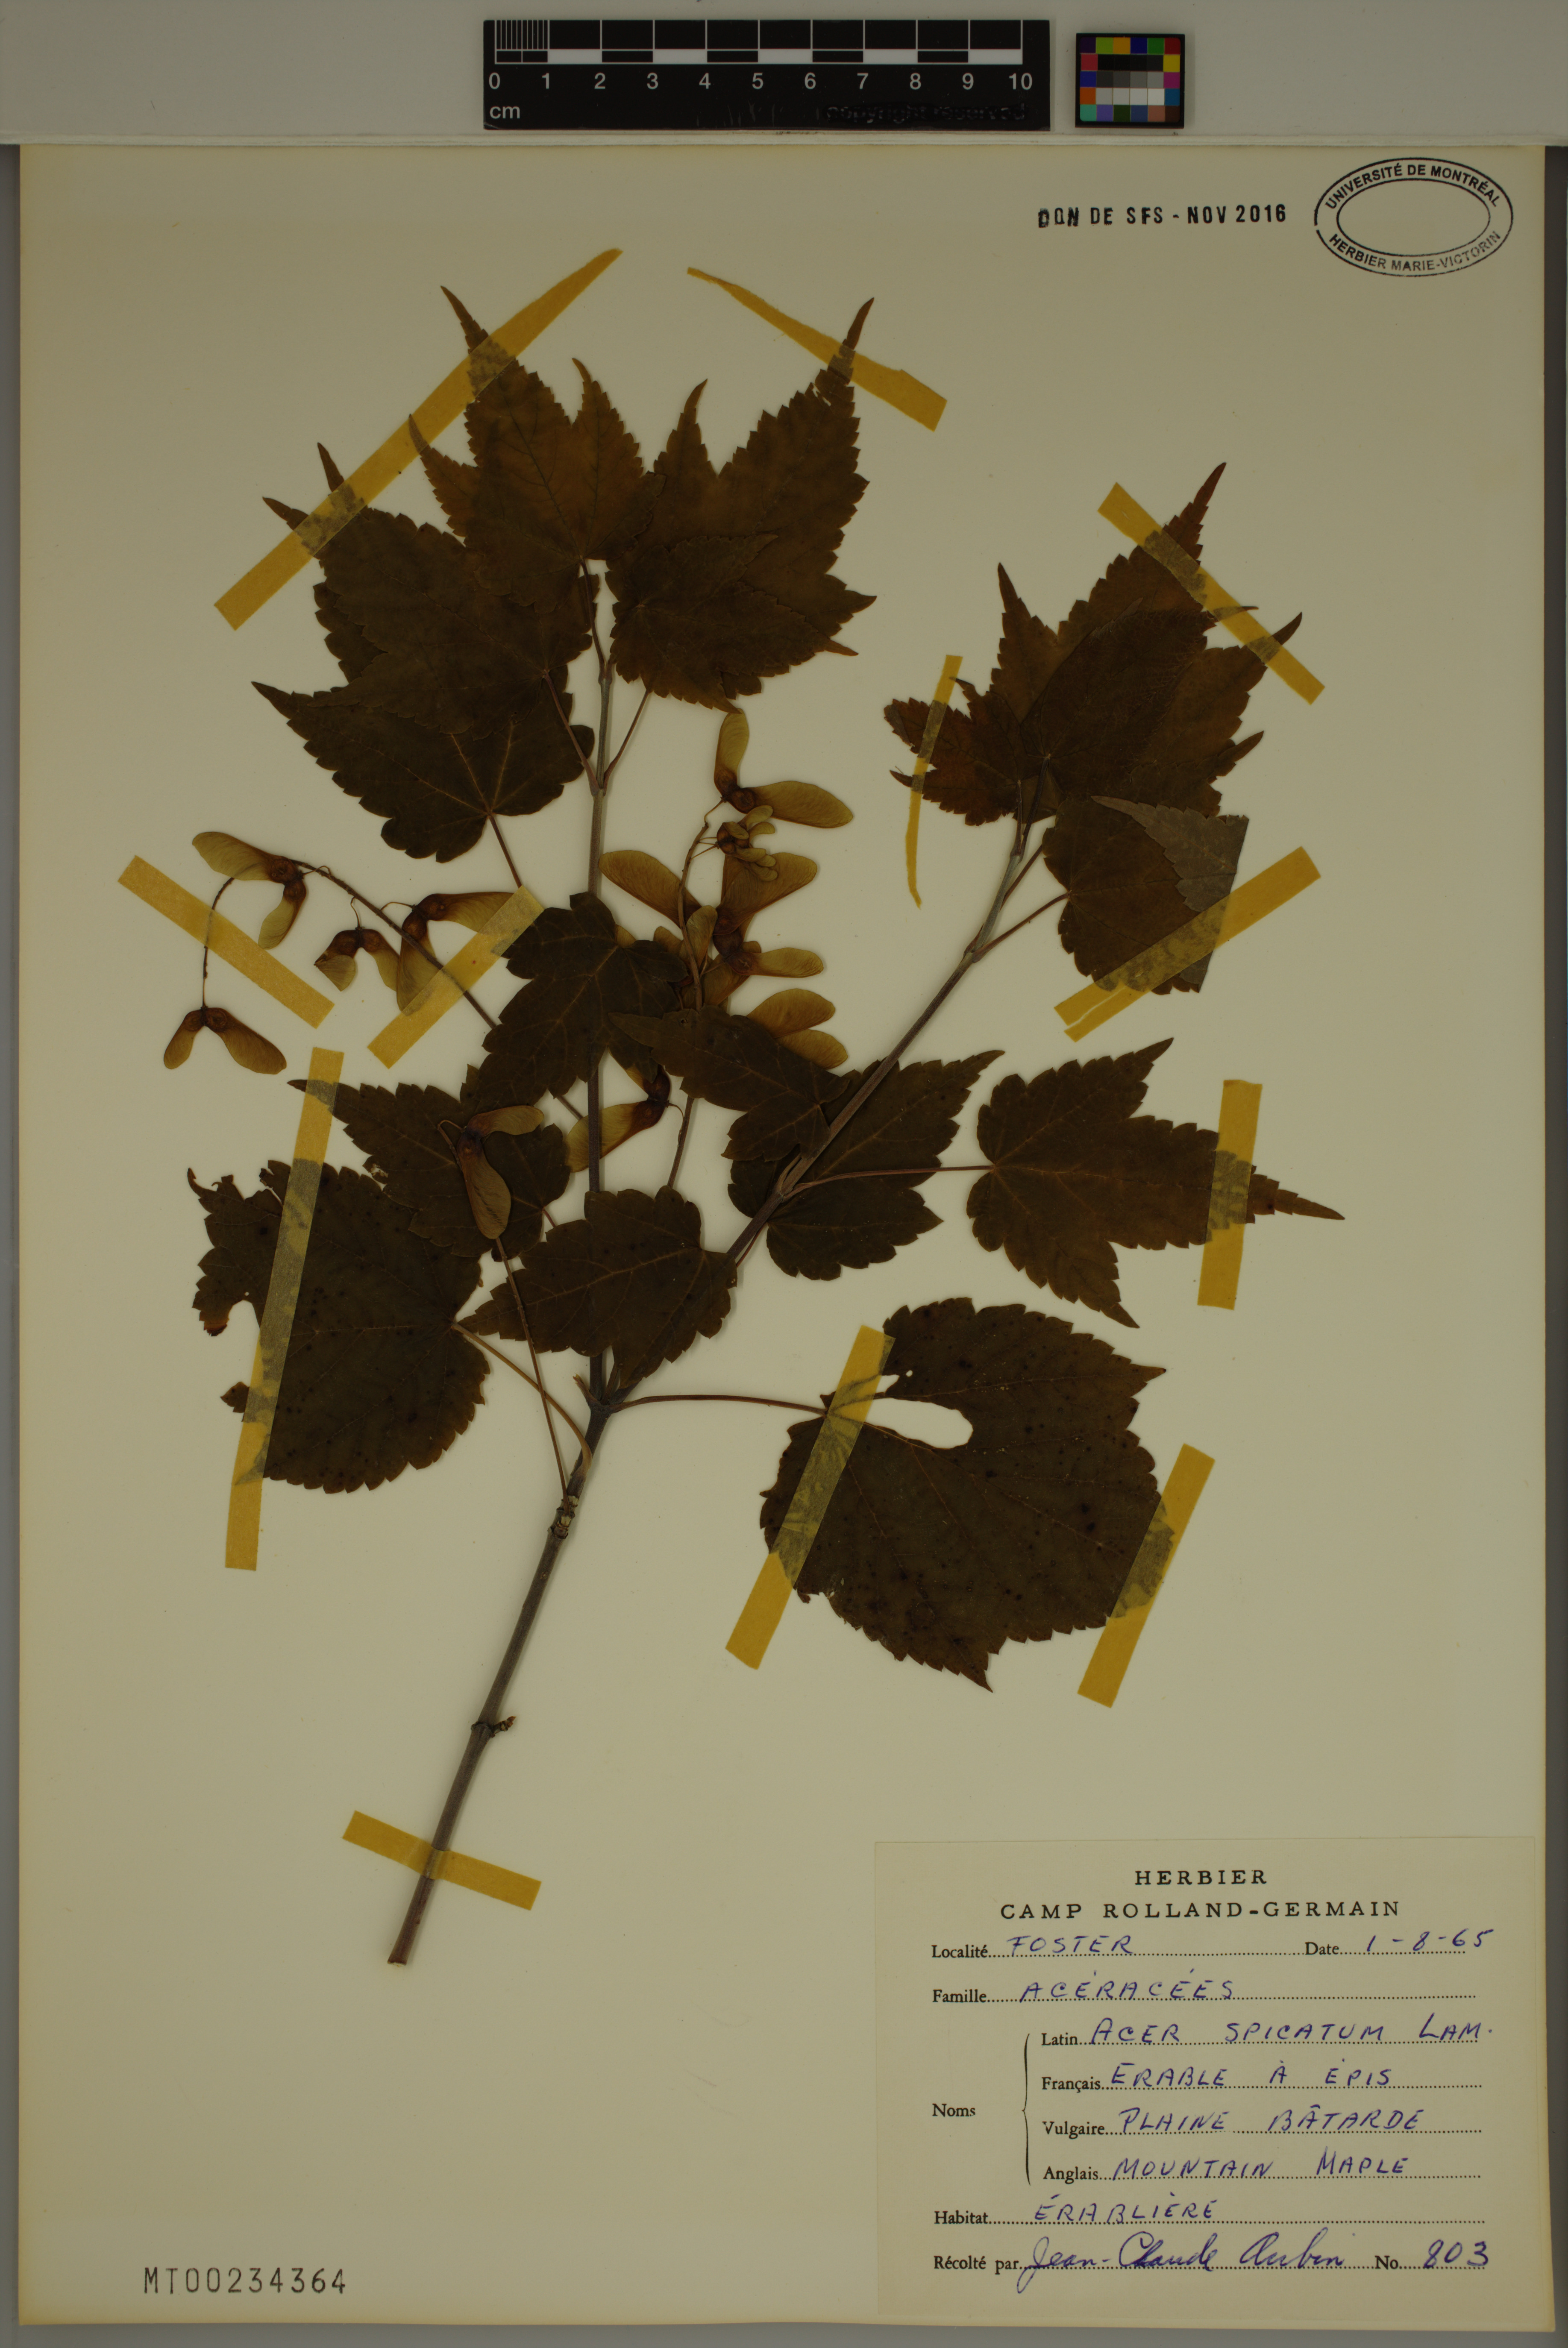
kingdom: Plantae
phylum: Tracheophyta
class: Magnoliopsida
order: Sapindales
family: Sapindaceae
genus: Acer
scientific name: Acer spicatum
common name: Mountain maple
